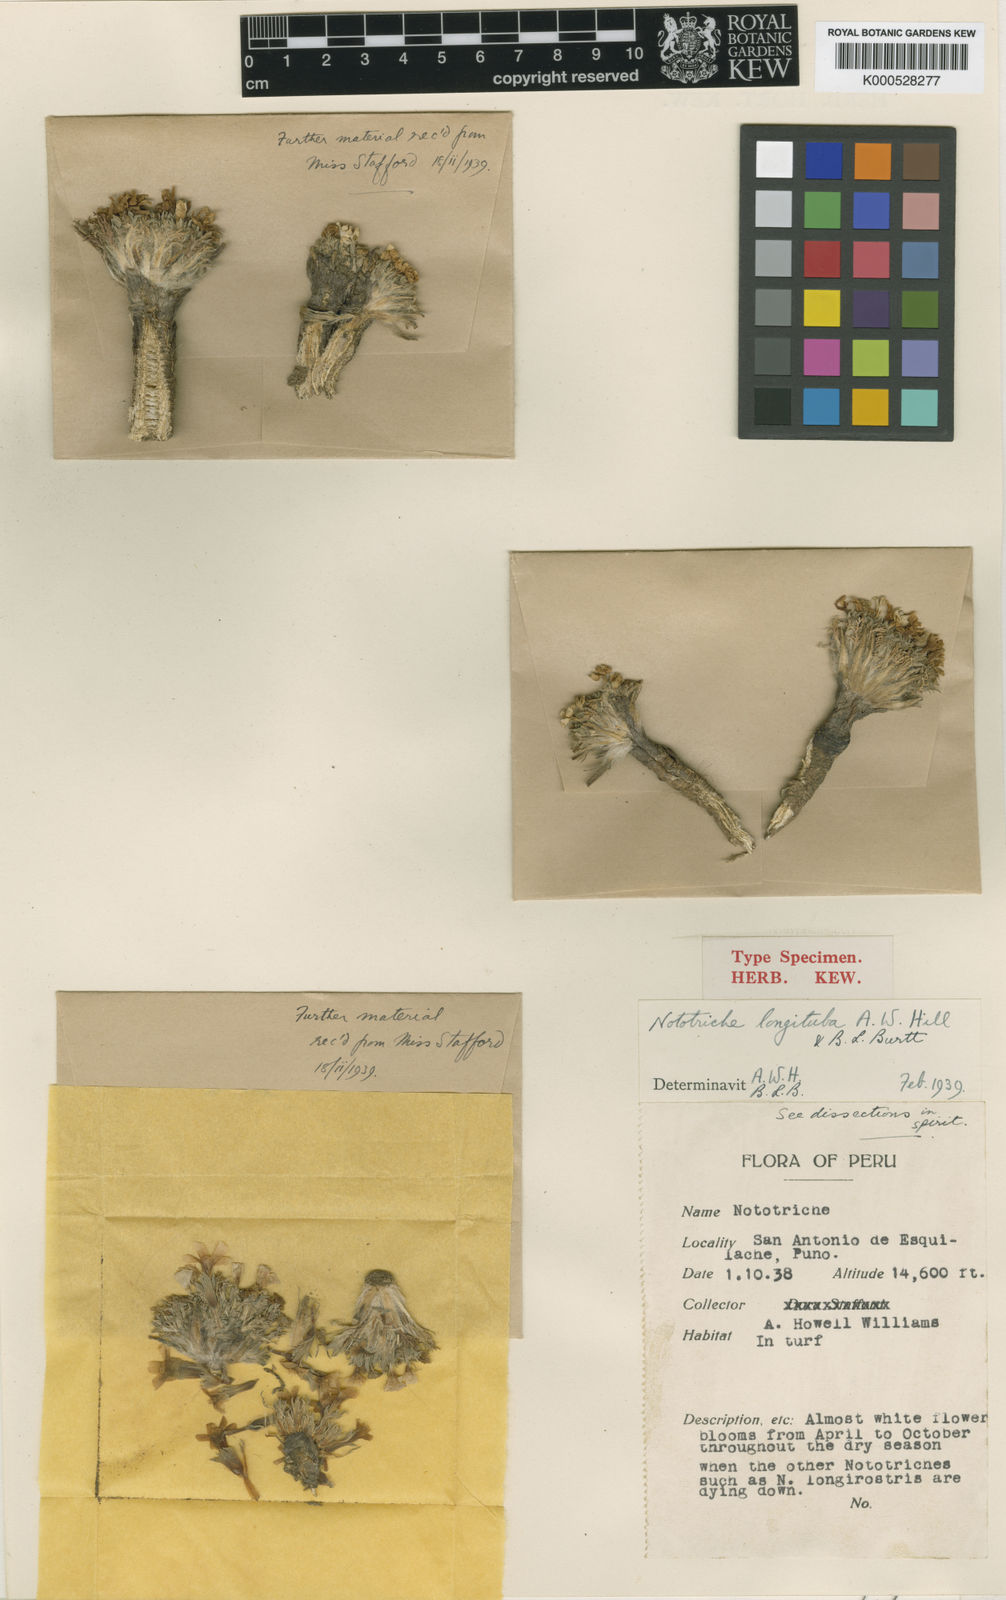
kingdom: Plantae
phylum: Tracheophyta
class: Magnoliopsida
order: Malvales
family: Malvaceae
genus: Nototriche
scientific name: Nototriche longituba
